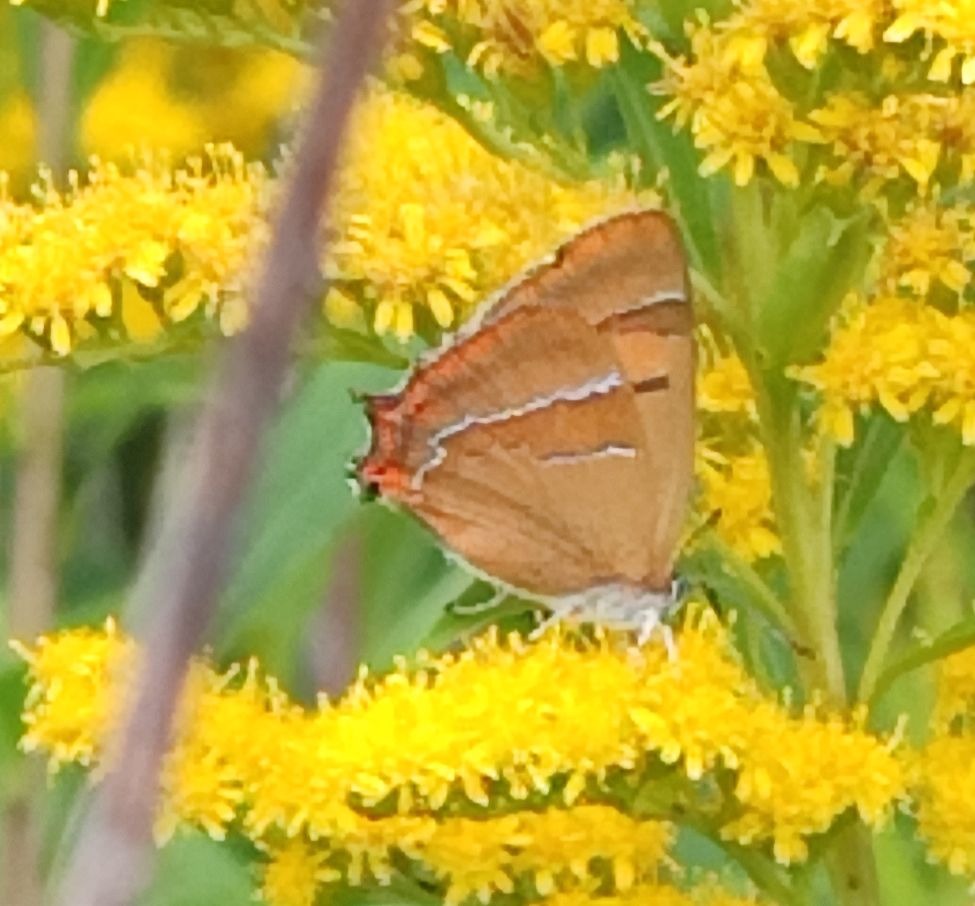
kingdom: Animalia
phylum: Arthropoda
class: Insecta
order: Lepidoptera
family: Lycaenidae
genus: Thecla
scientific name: Thecla betulae
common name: Guldhale
